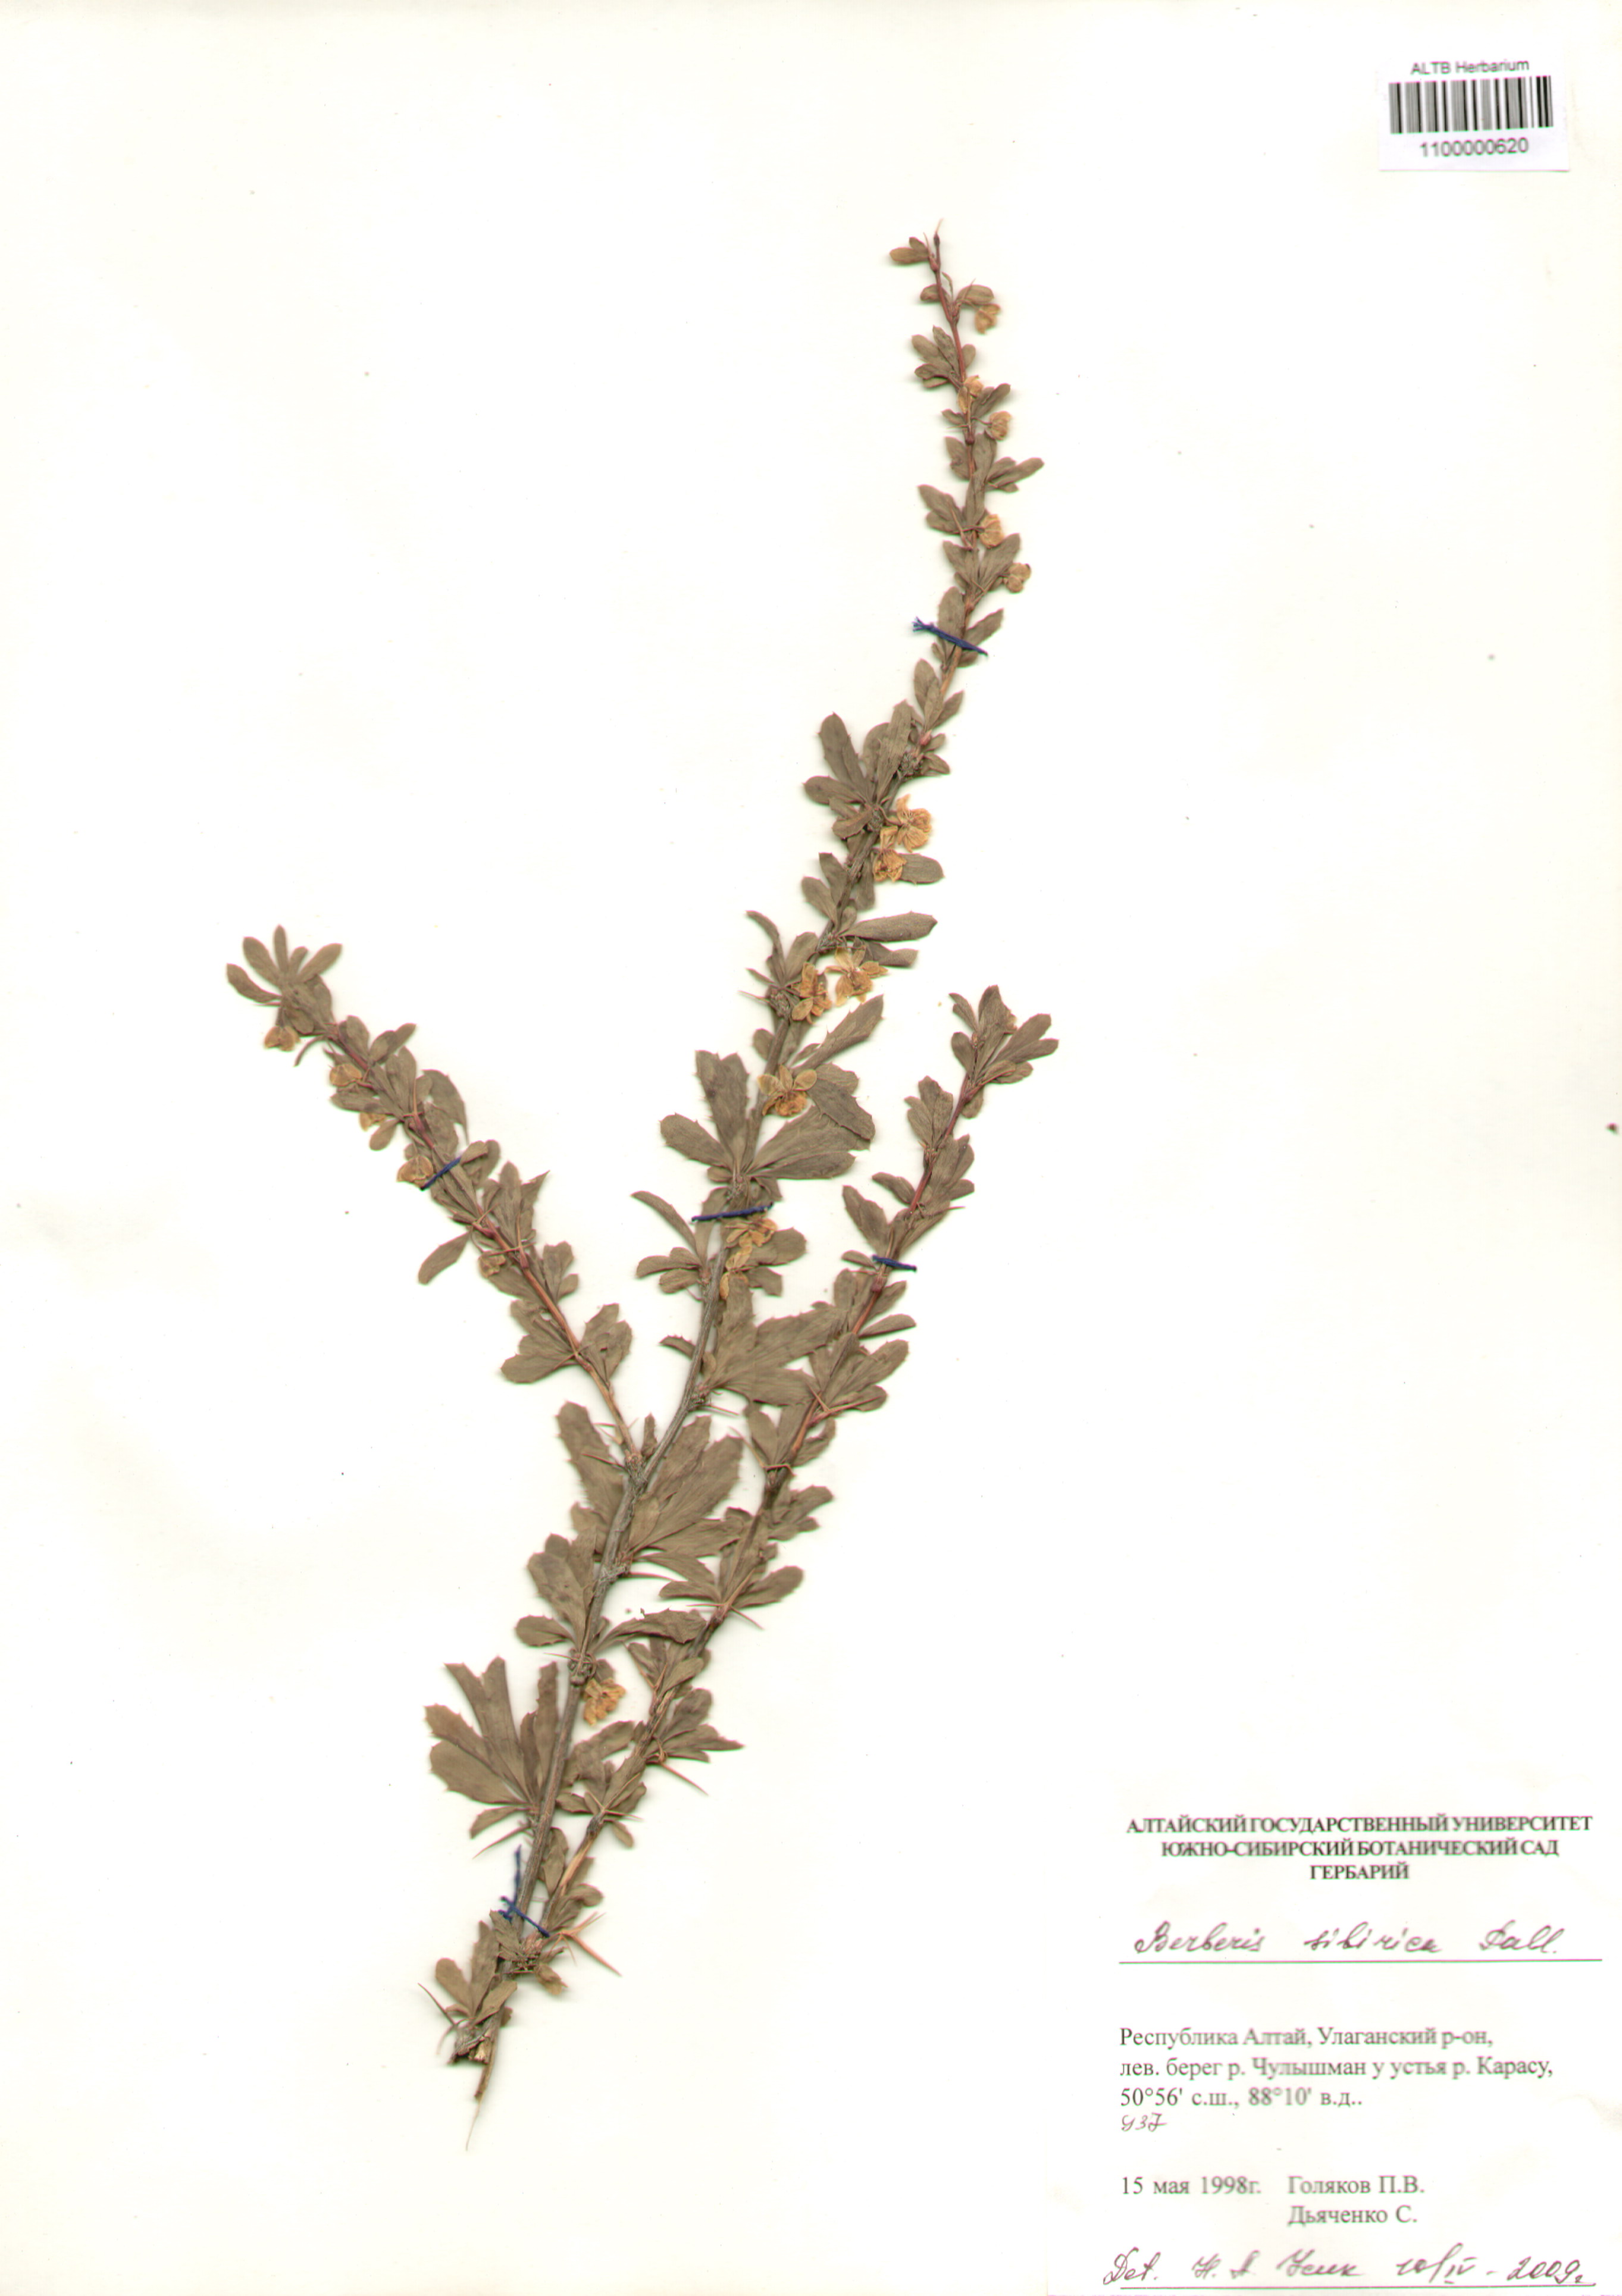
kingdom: Plantae
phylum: Tracheophyta
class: Magnoliopsida
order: Ranunculales
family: Berberidaceae
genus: Berberis
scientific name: Berberis sibirica
